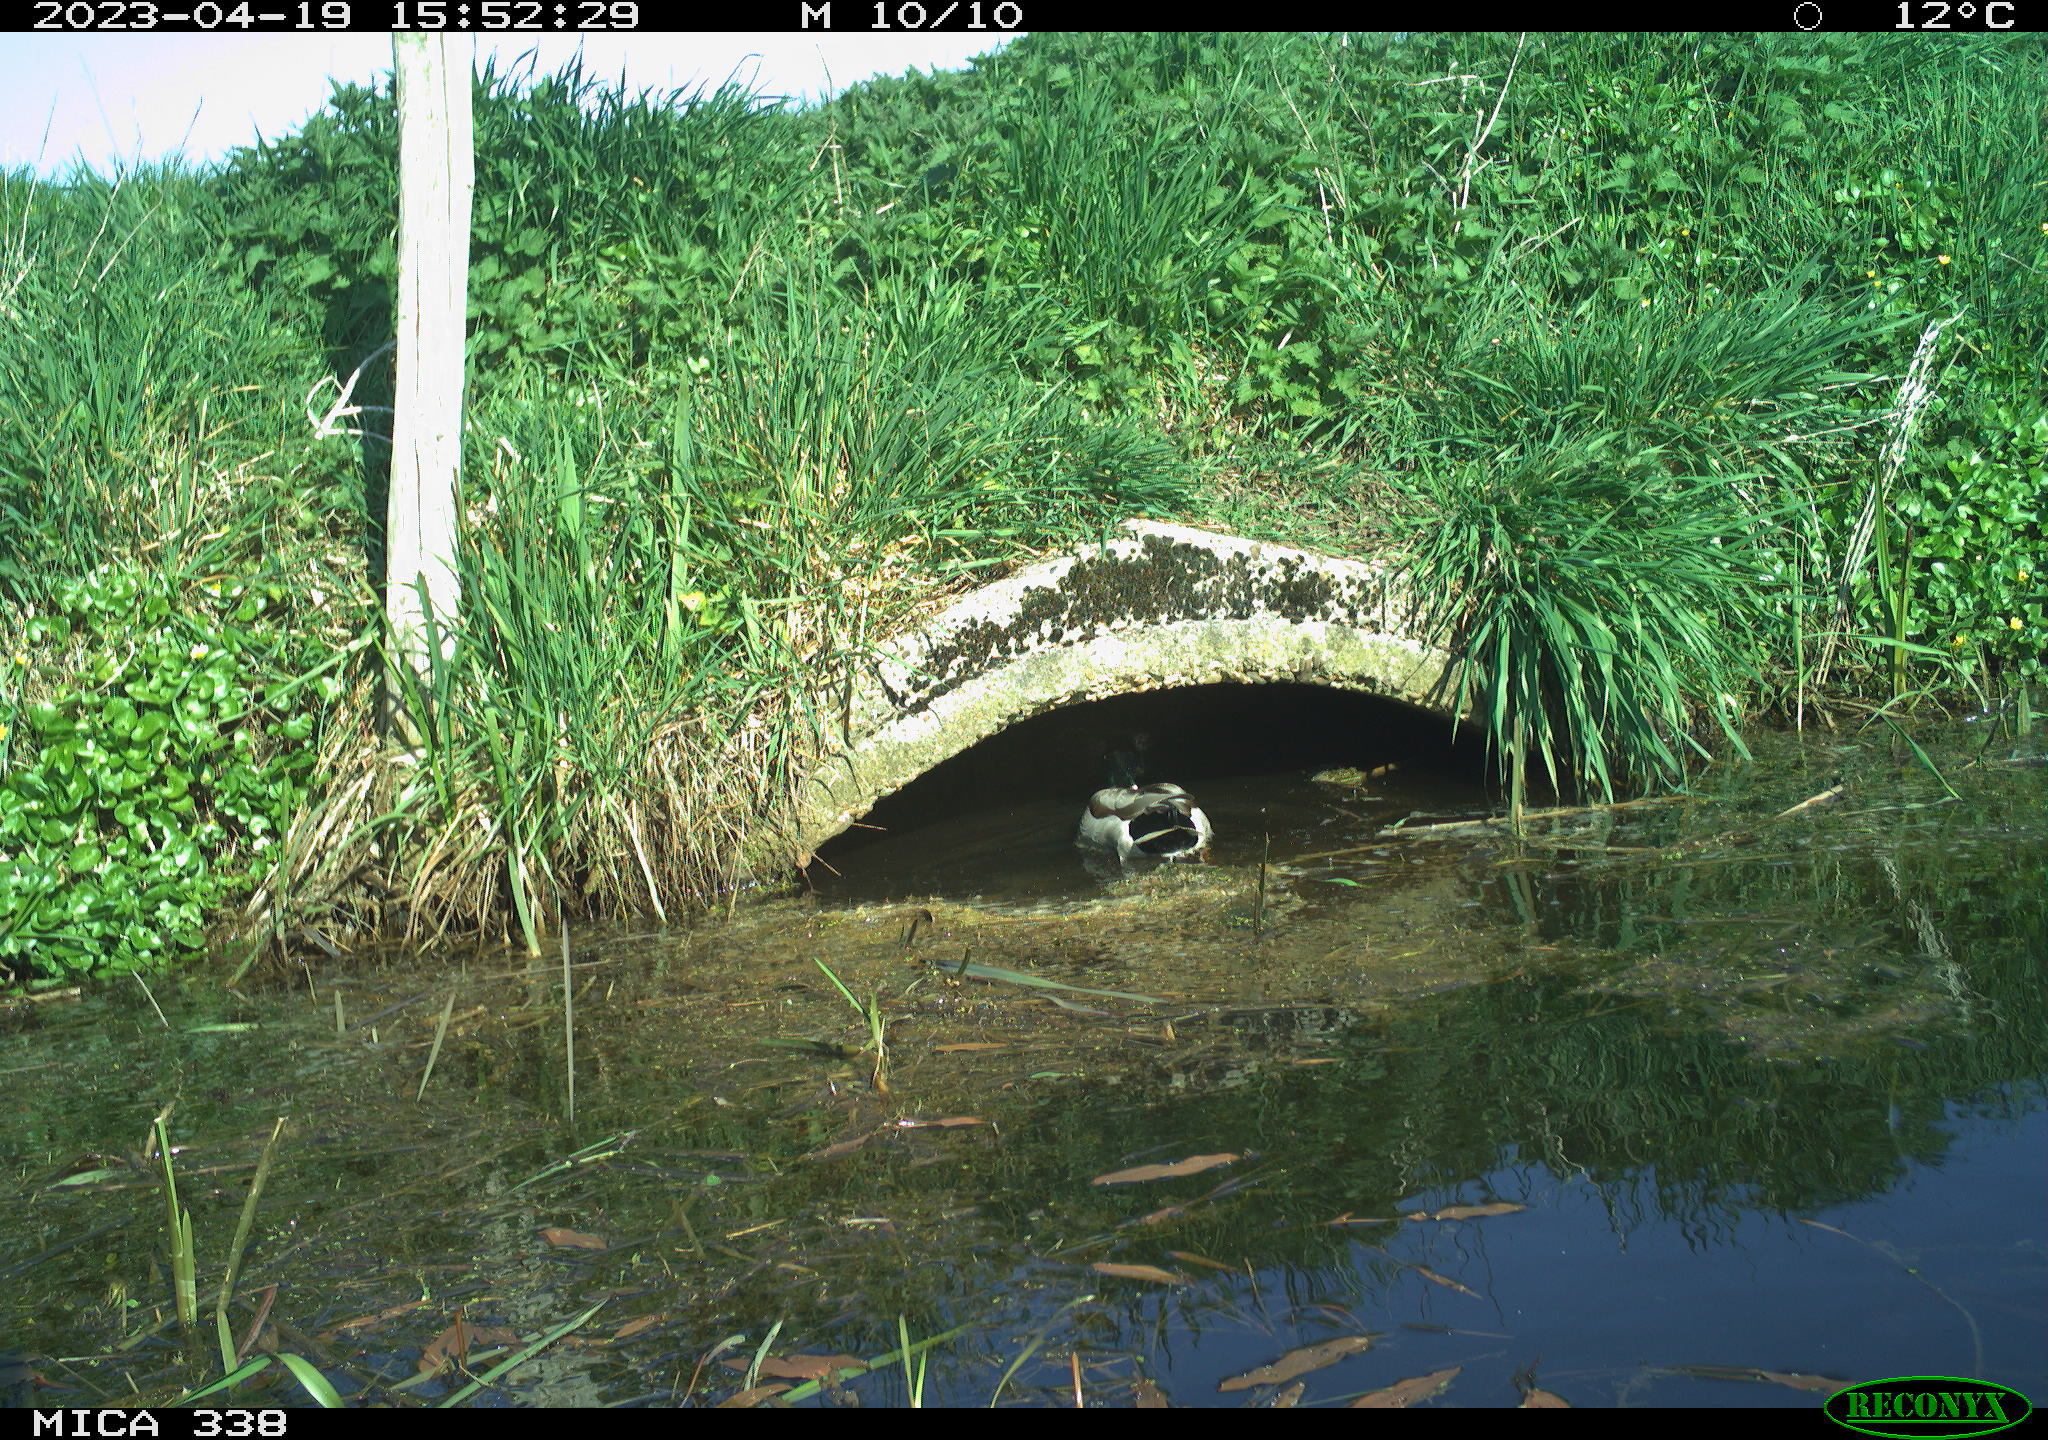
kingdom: Animalia
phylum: Chordata
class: Aves
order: Anseriformes
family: Anatidae
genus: Anas
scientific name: Anas platyrhynchos
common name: Mallard
